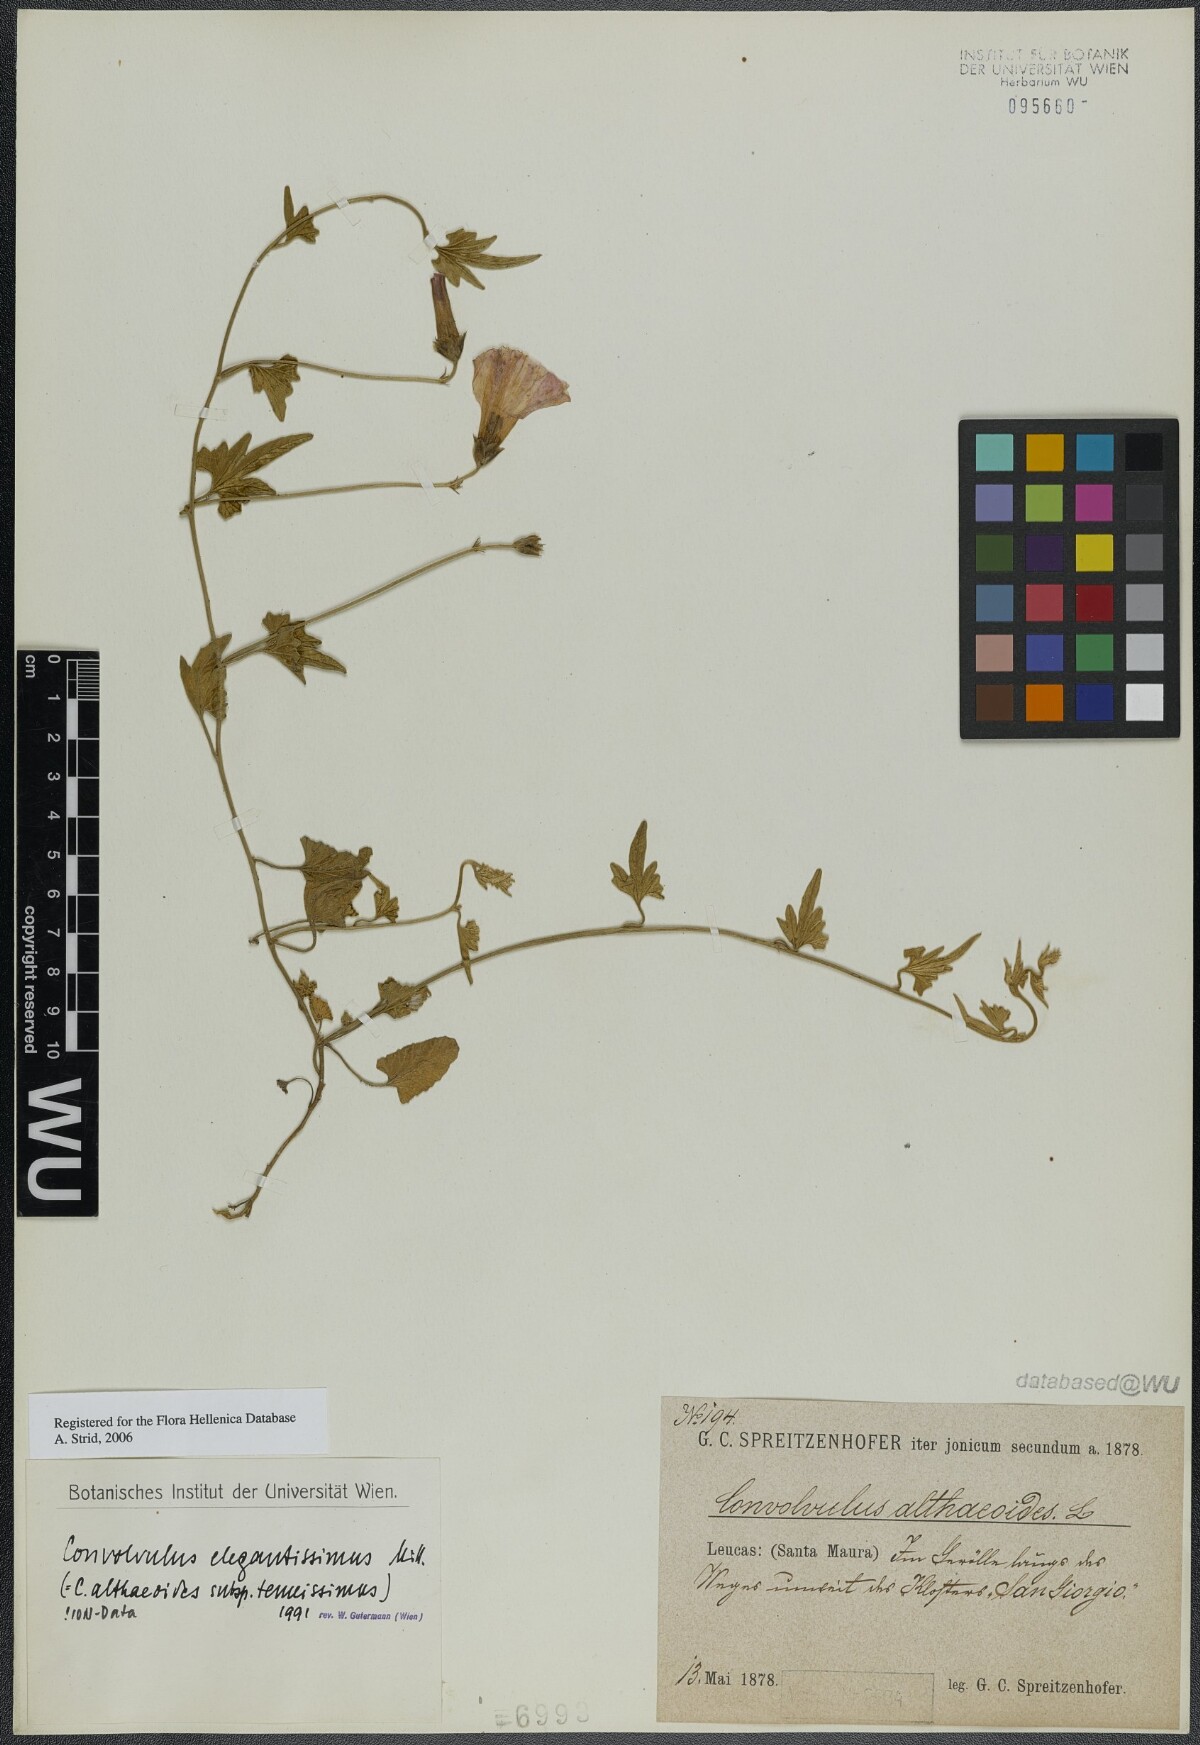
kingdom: Plantae
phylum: Tracheophyta
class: Magnoliopsida
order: Solanales
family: Convolvulaceae
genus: Convolvulus
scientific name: Convolvulus elegantissimus
